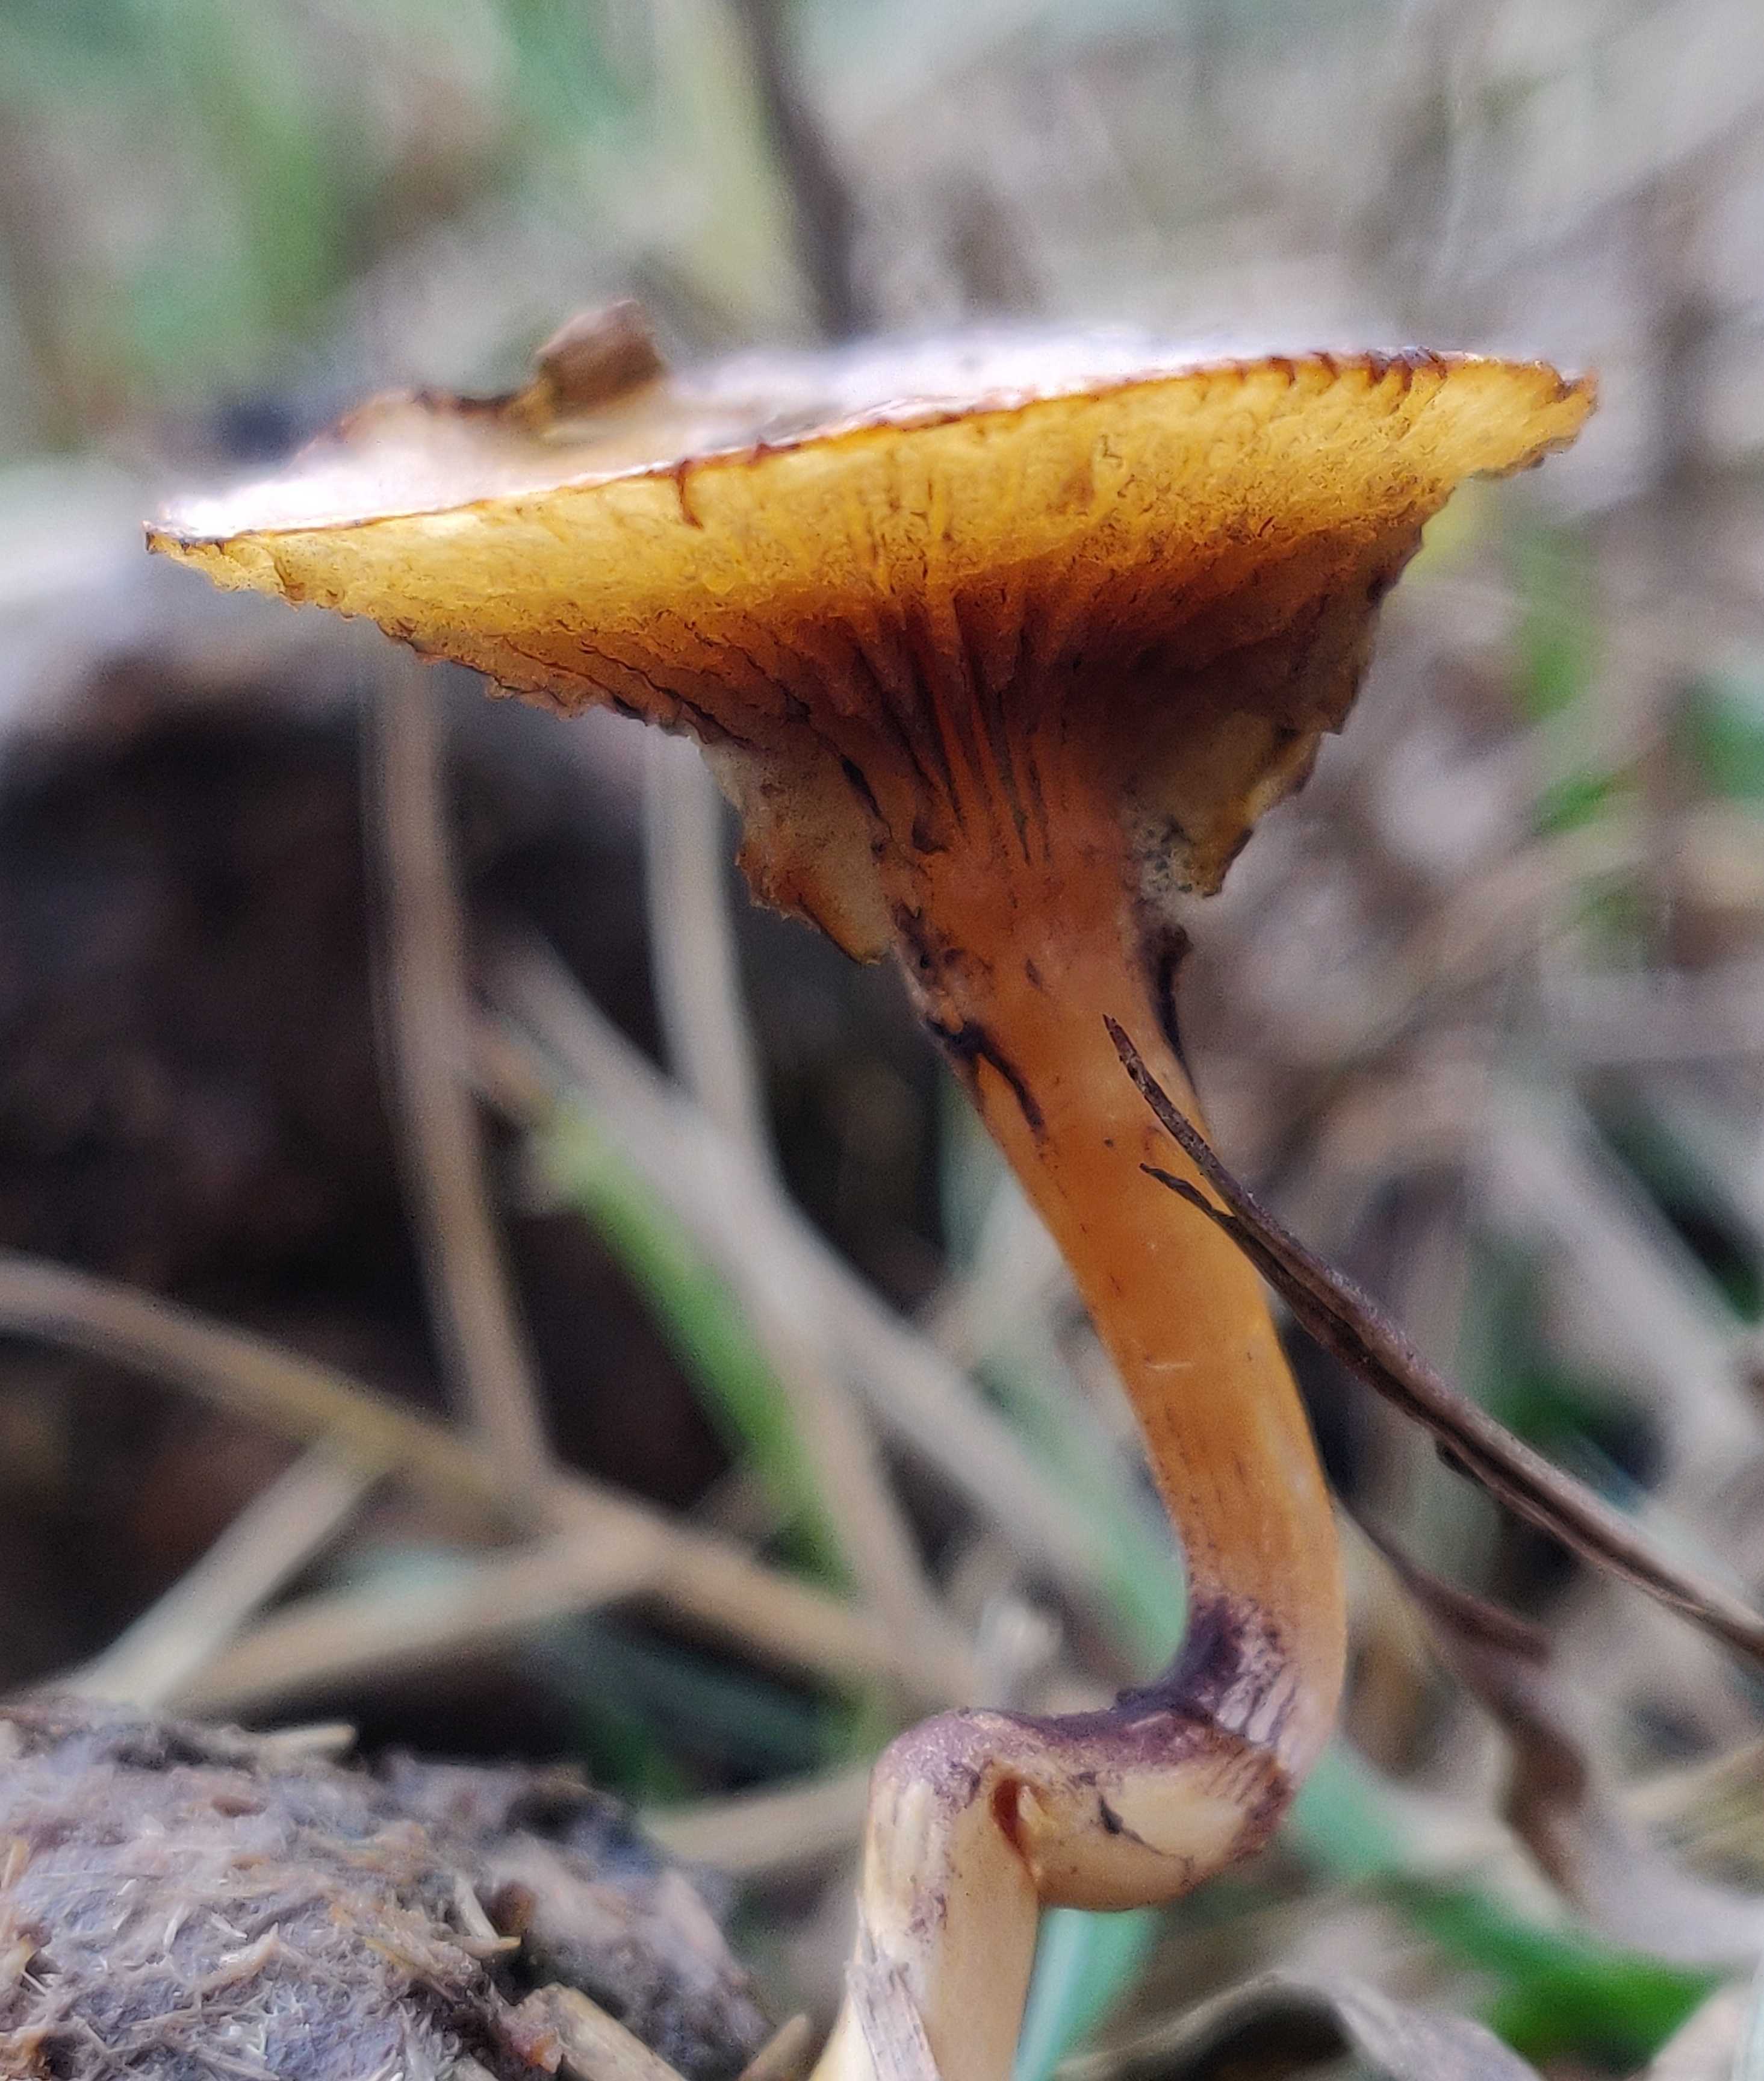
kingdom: Fungi
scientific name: Fungi
